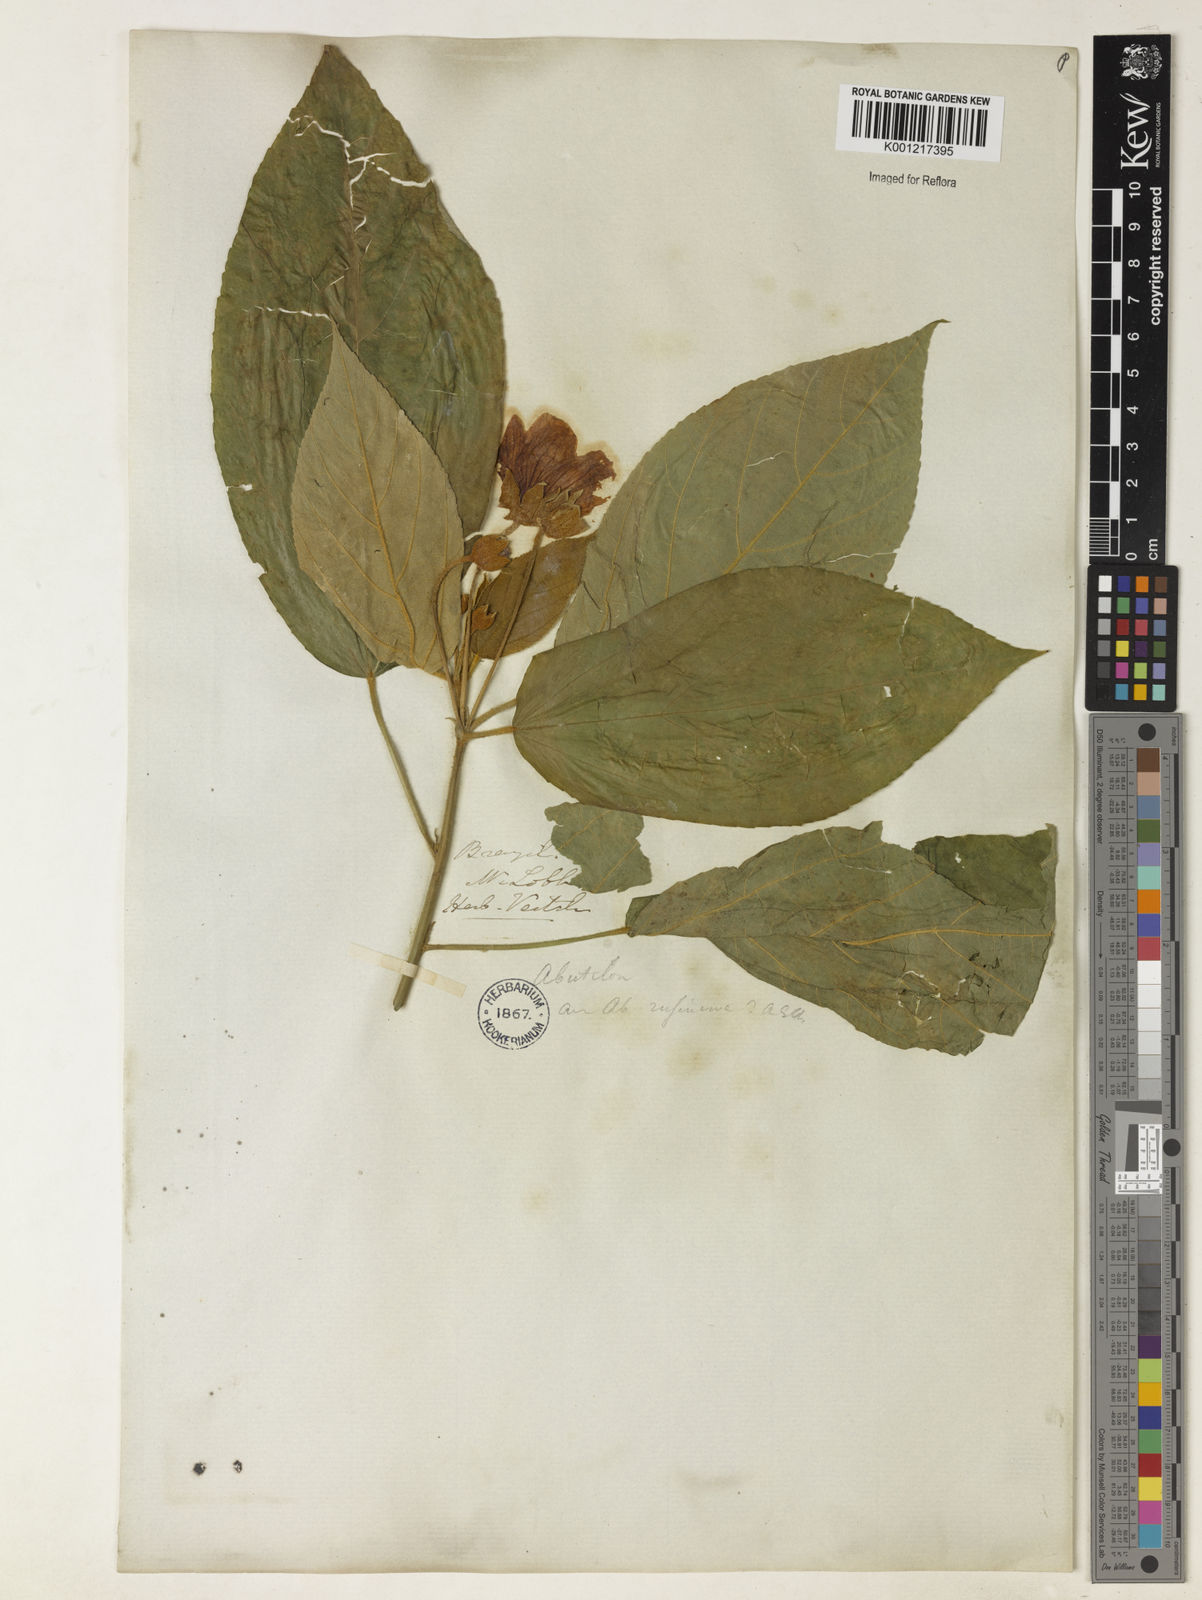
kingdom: Plantae
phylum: Tracheophyta
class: Magnoliopsida
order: Malvales
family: Malvaceae
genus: Abutilon
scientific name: Abutilon
